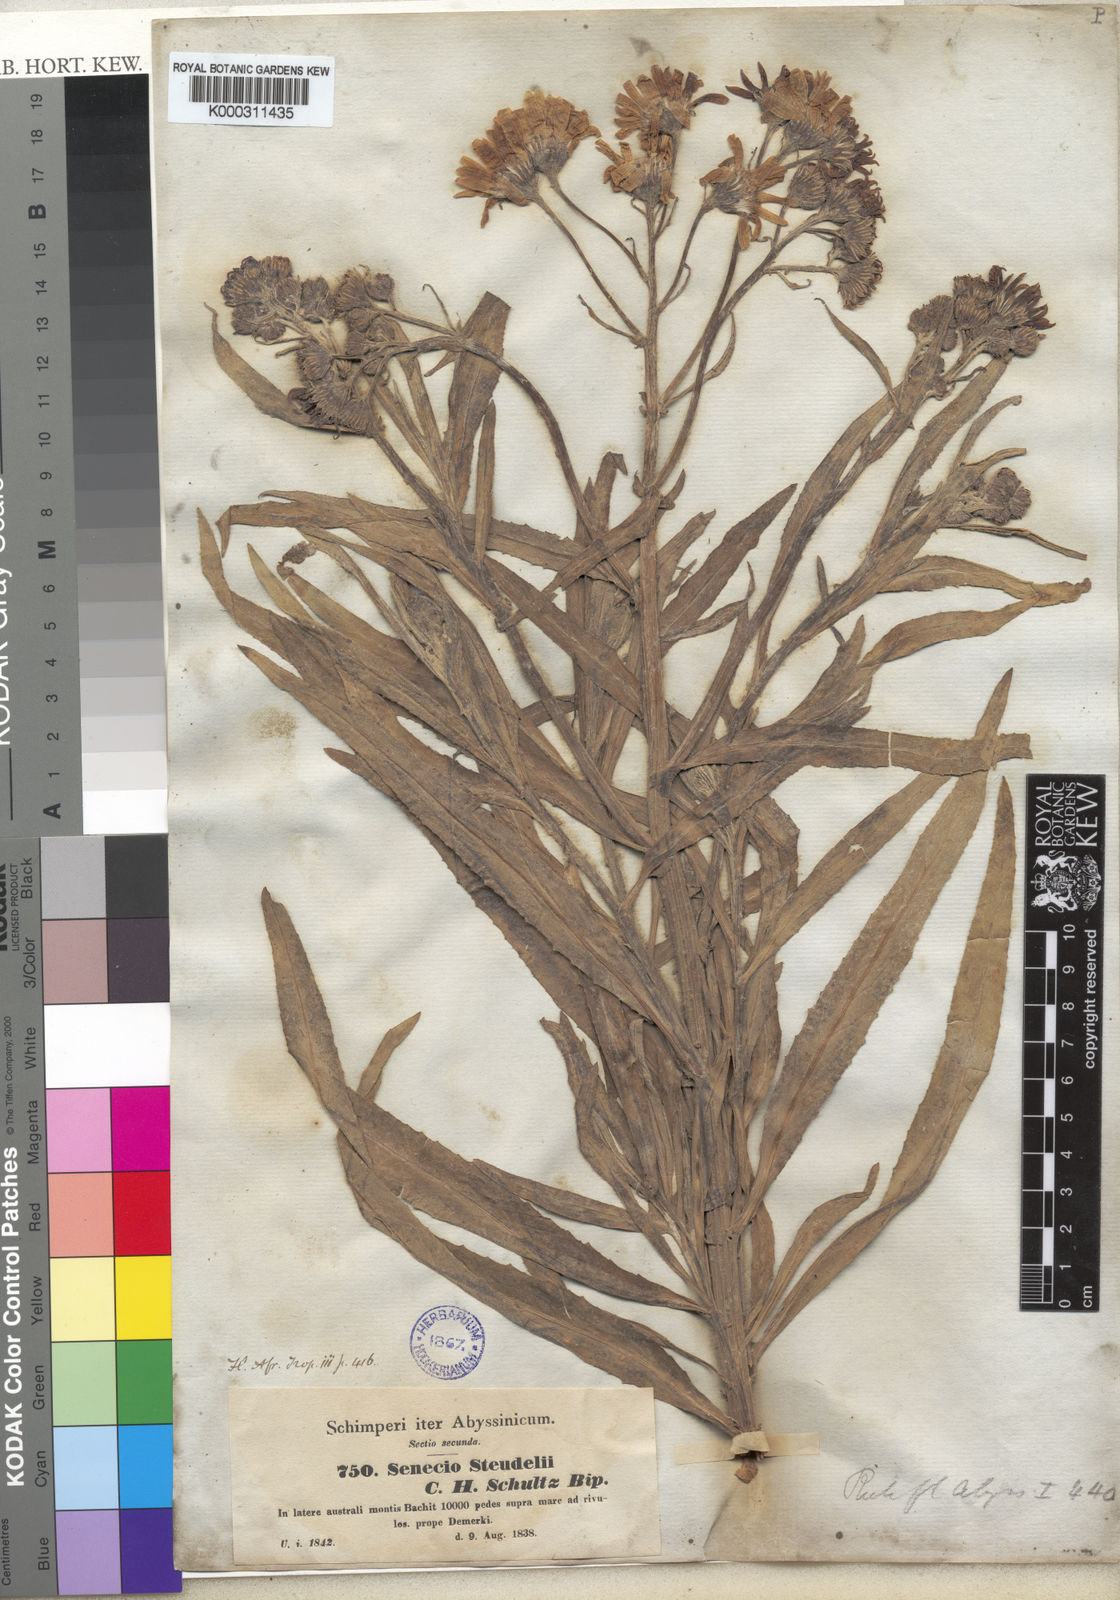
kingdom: Plantae
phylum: Tracheophyta
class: Magnoliopsida
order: Asterales
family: Asteraceae
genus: Senecio
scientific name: Senecio steudelii
